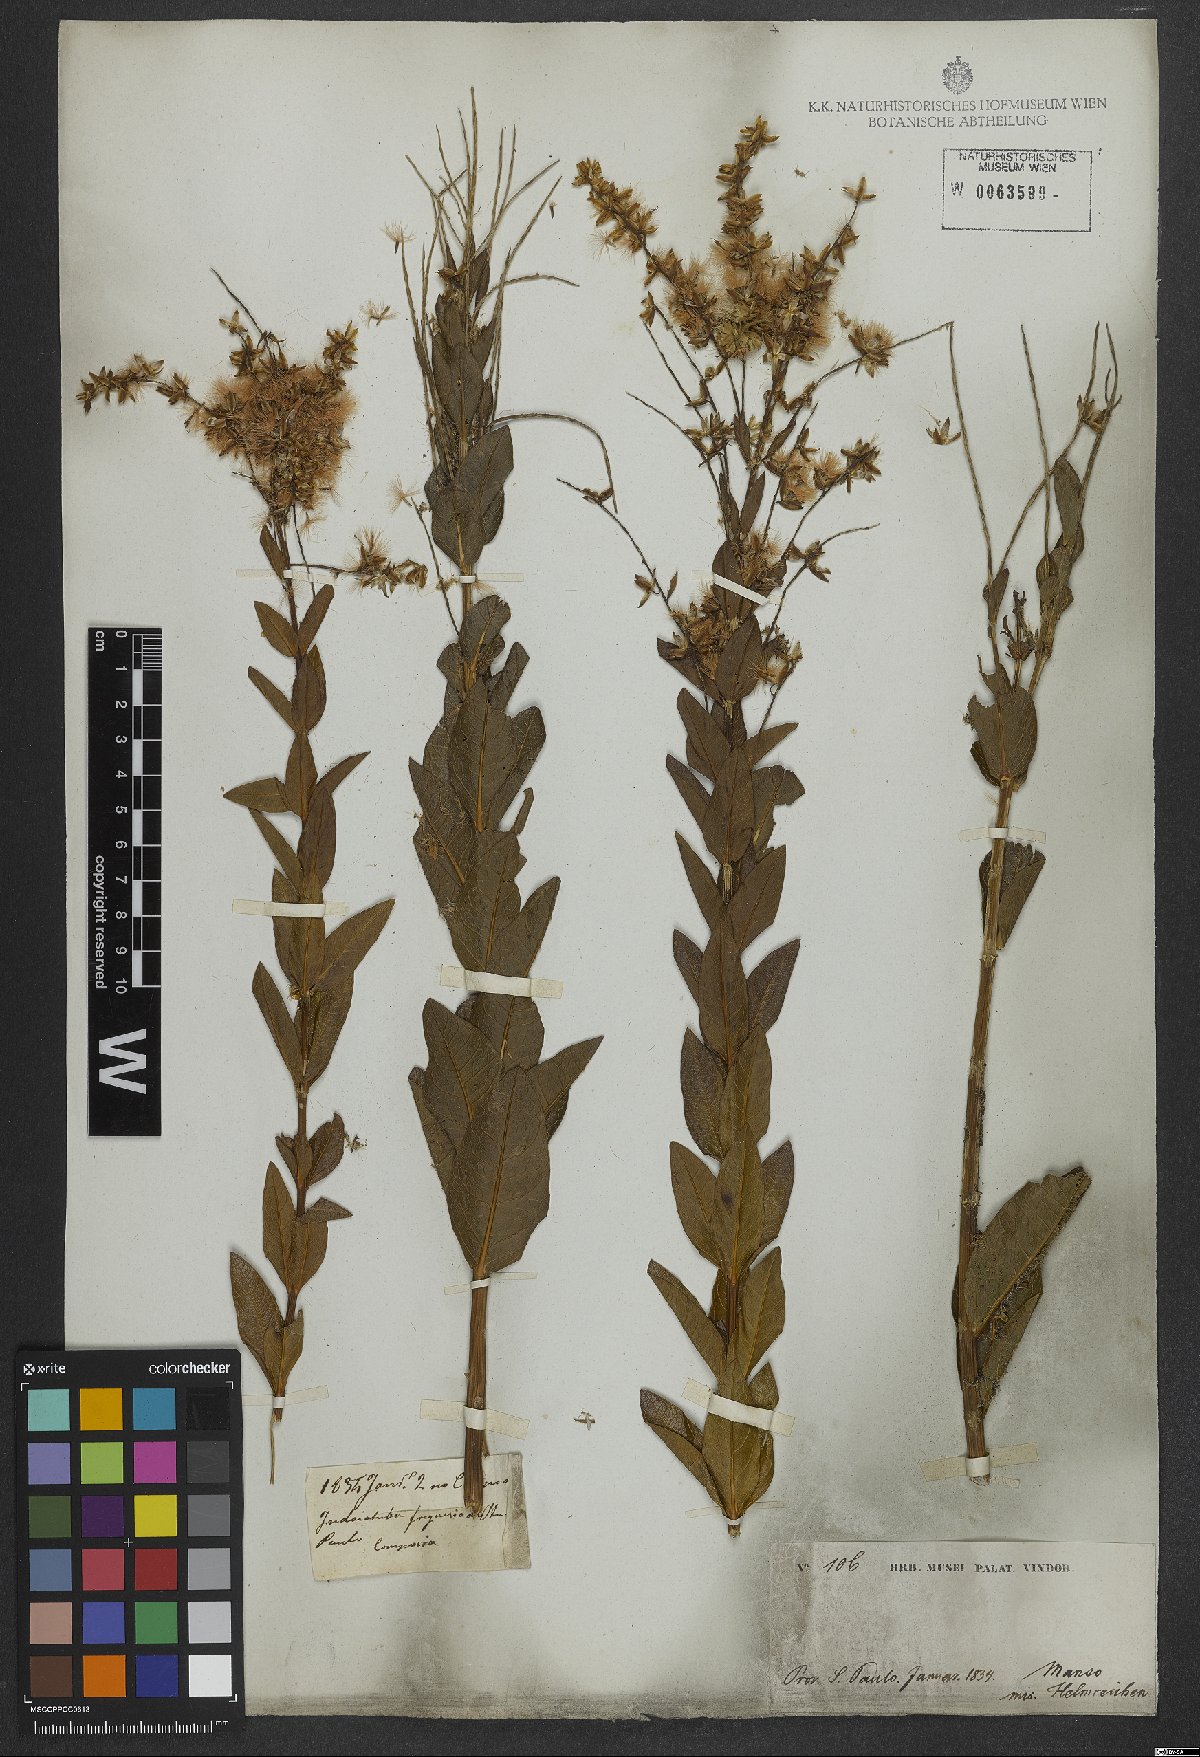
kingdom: Plantae
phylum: Tracheophyta
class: Magnoliopsida
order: Asterales
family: Asteraceae
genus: Mikania
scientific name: Mikania oblongifolia
